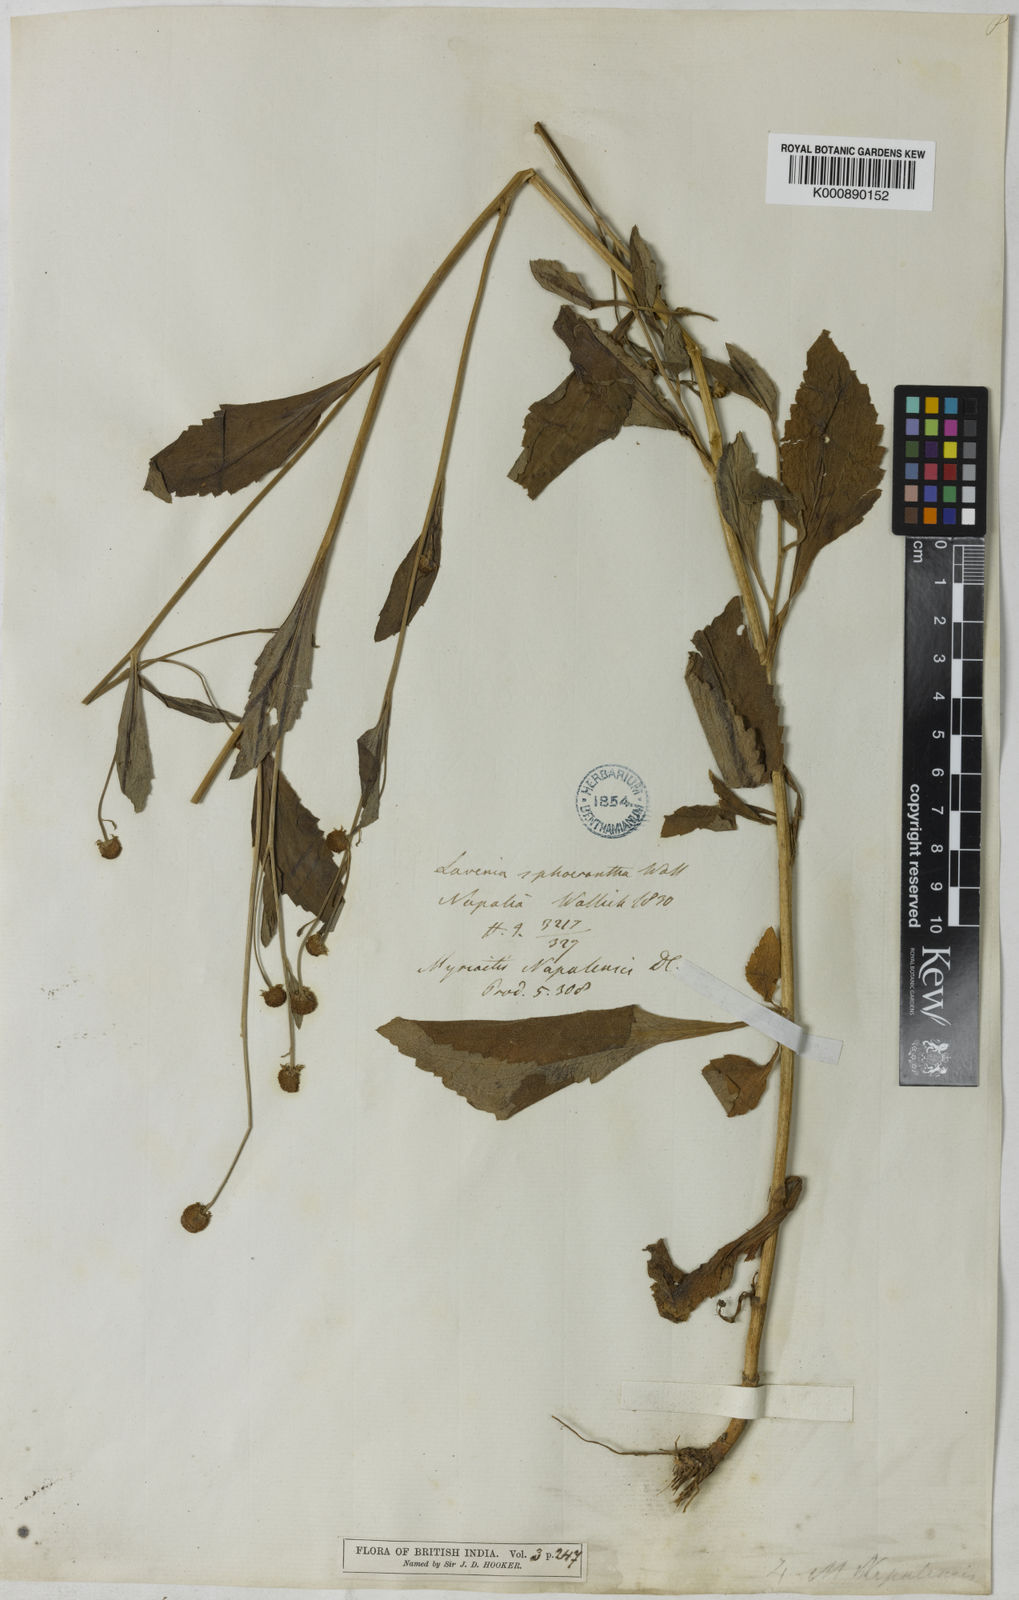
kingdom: Plantae
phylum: Tracheophyta
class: Magnoliopsida
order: Asterales
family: Asteraceae
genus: Myriactis
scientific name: Myriactis
